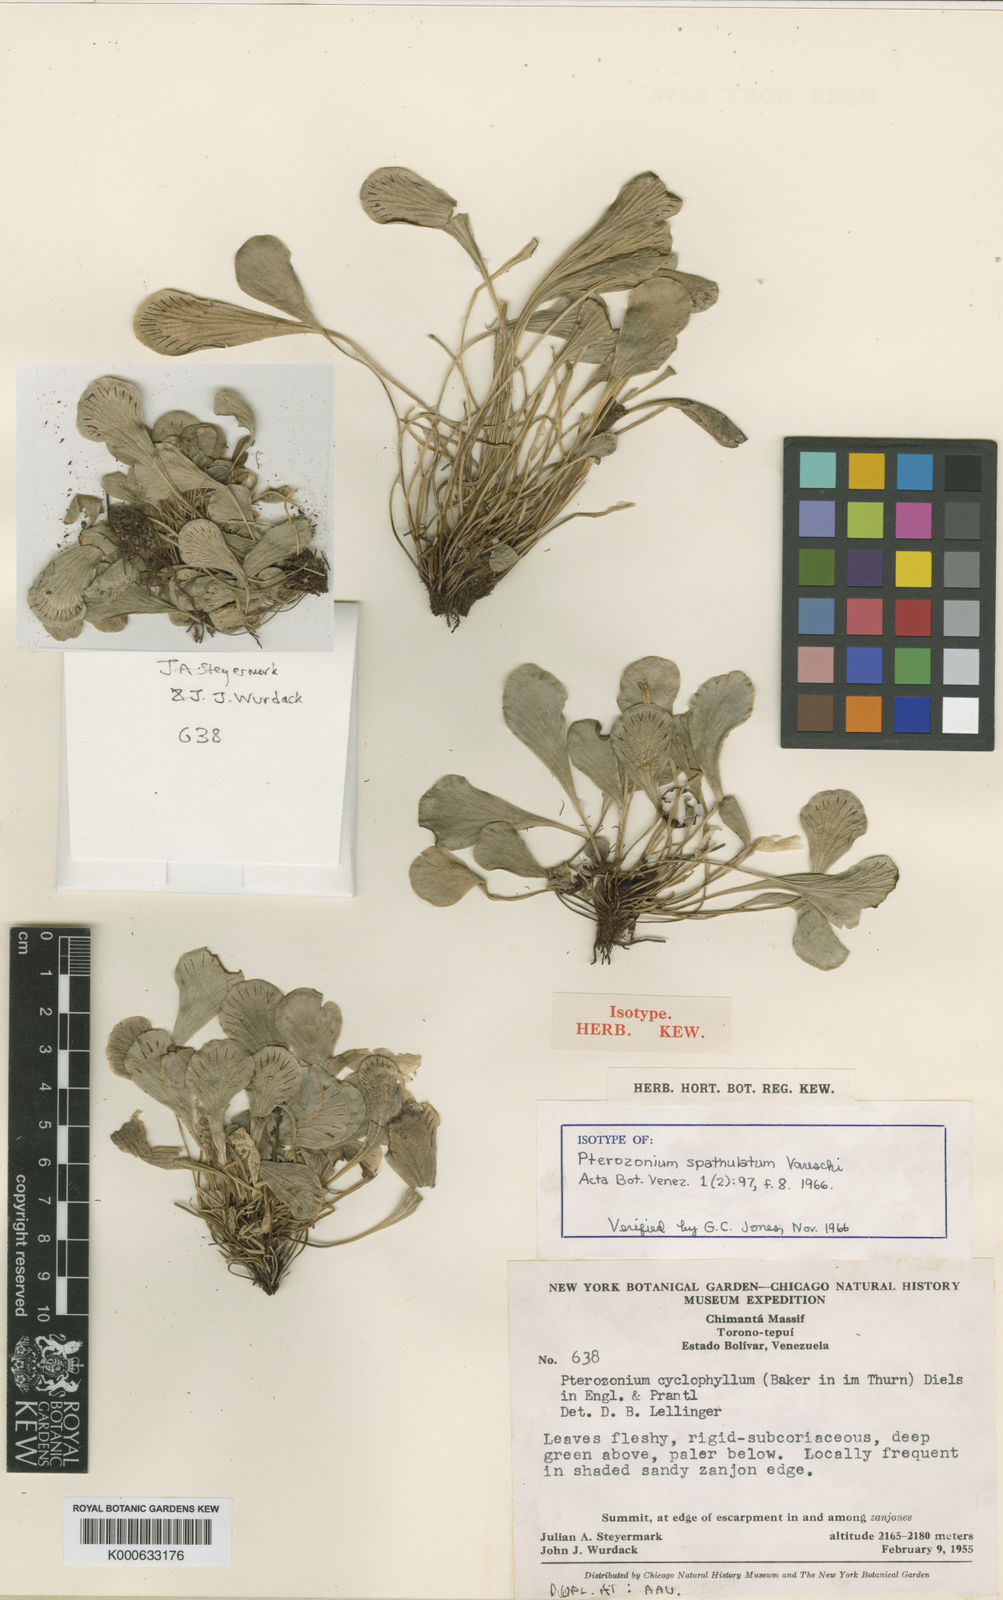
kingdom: Plantae
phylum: Tracheophyta
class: Polypodiopsida
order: Polypodiales
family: Pteridaceae
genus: Pterozonium
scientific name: Pterozonium cyclophyllum
